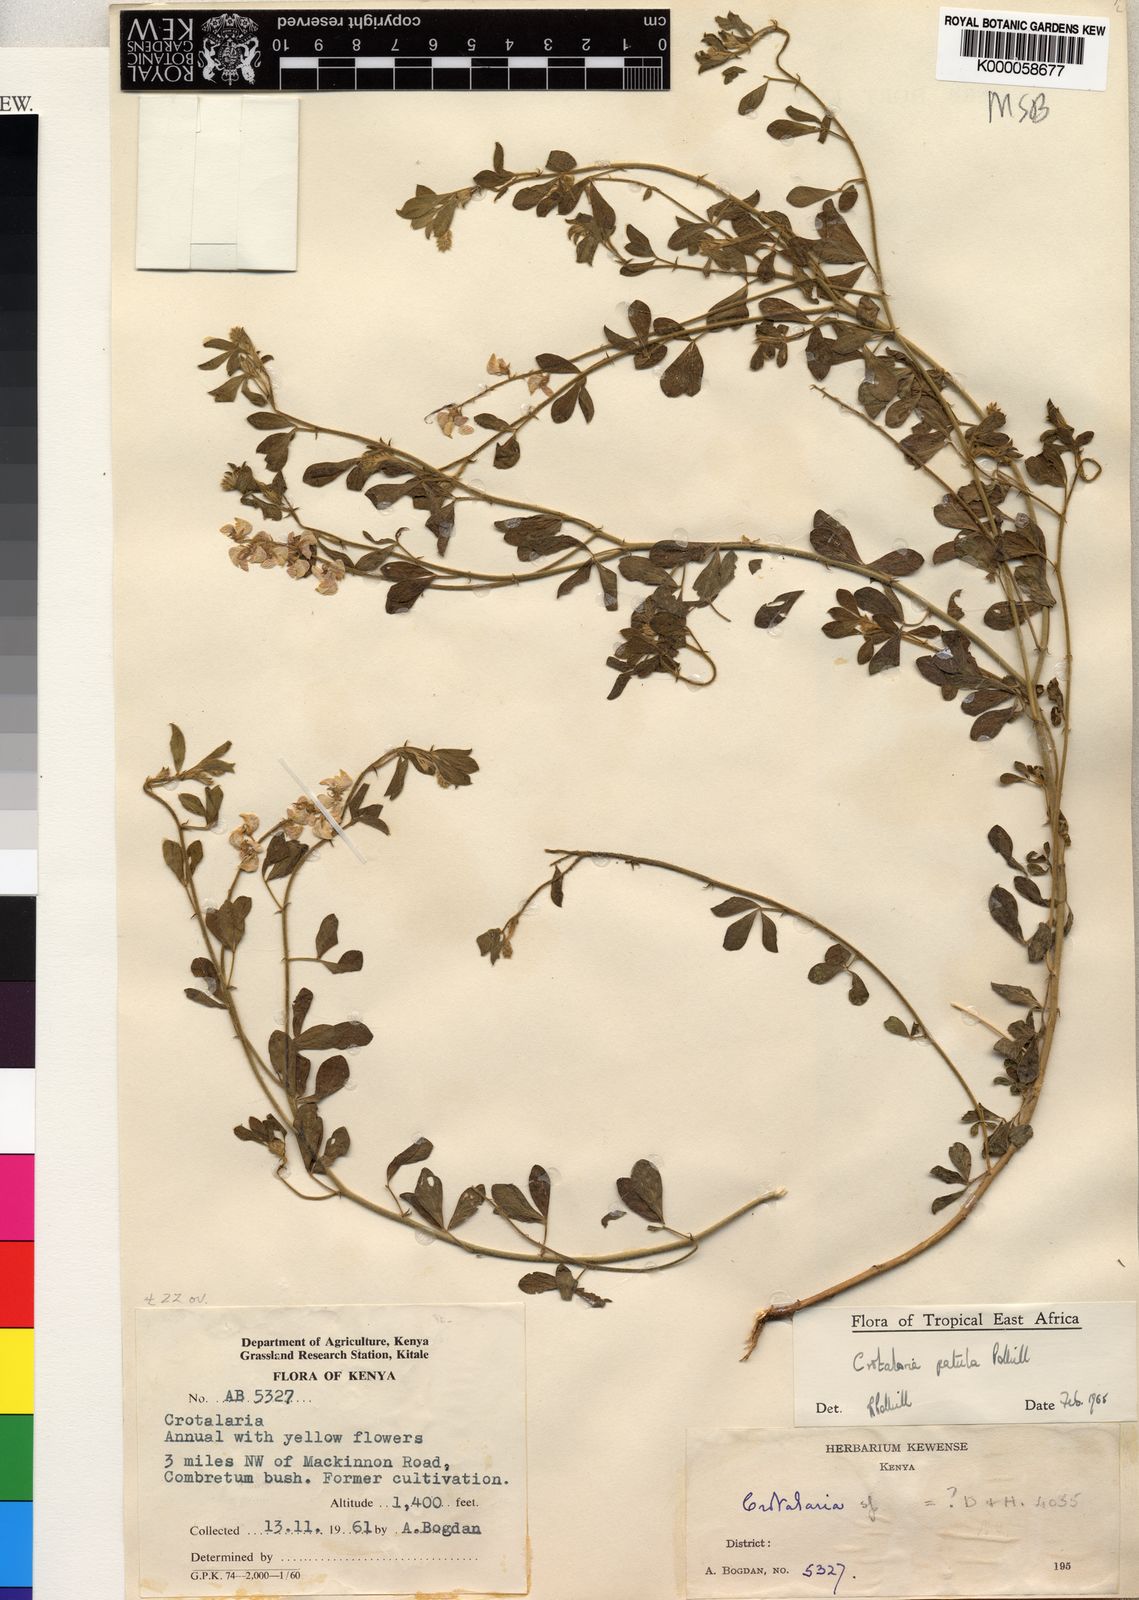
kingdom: Plantae
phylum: Tracheophyta
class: Magnoliopsida
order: Fabales
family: Fabaceae
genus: Crotalaria
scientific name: Crotalaria patula
